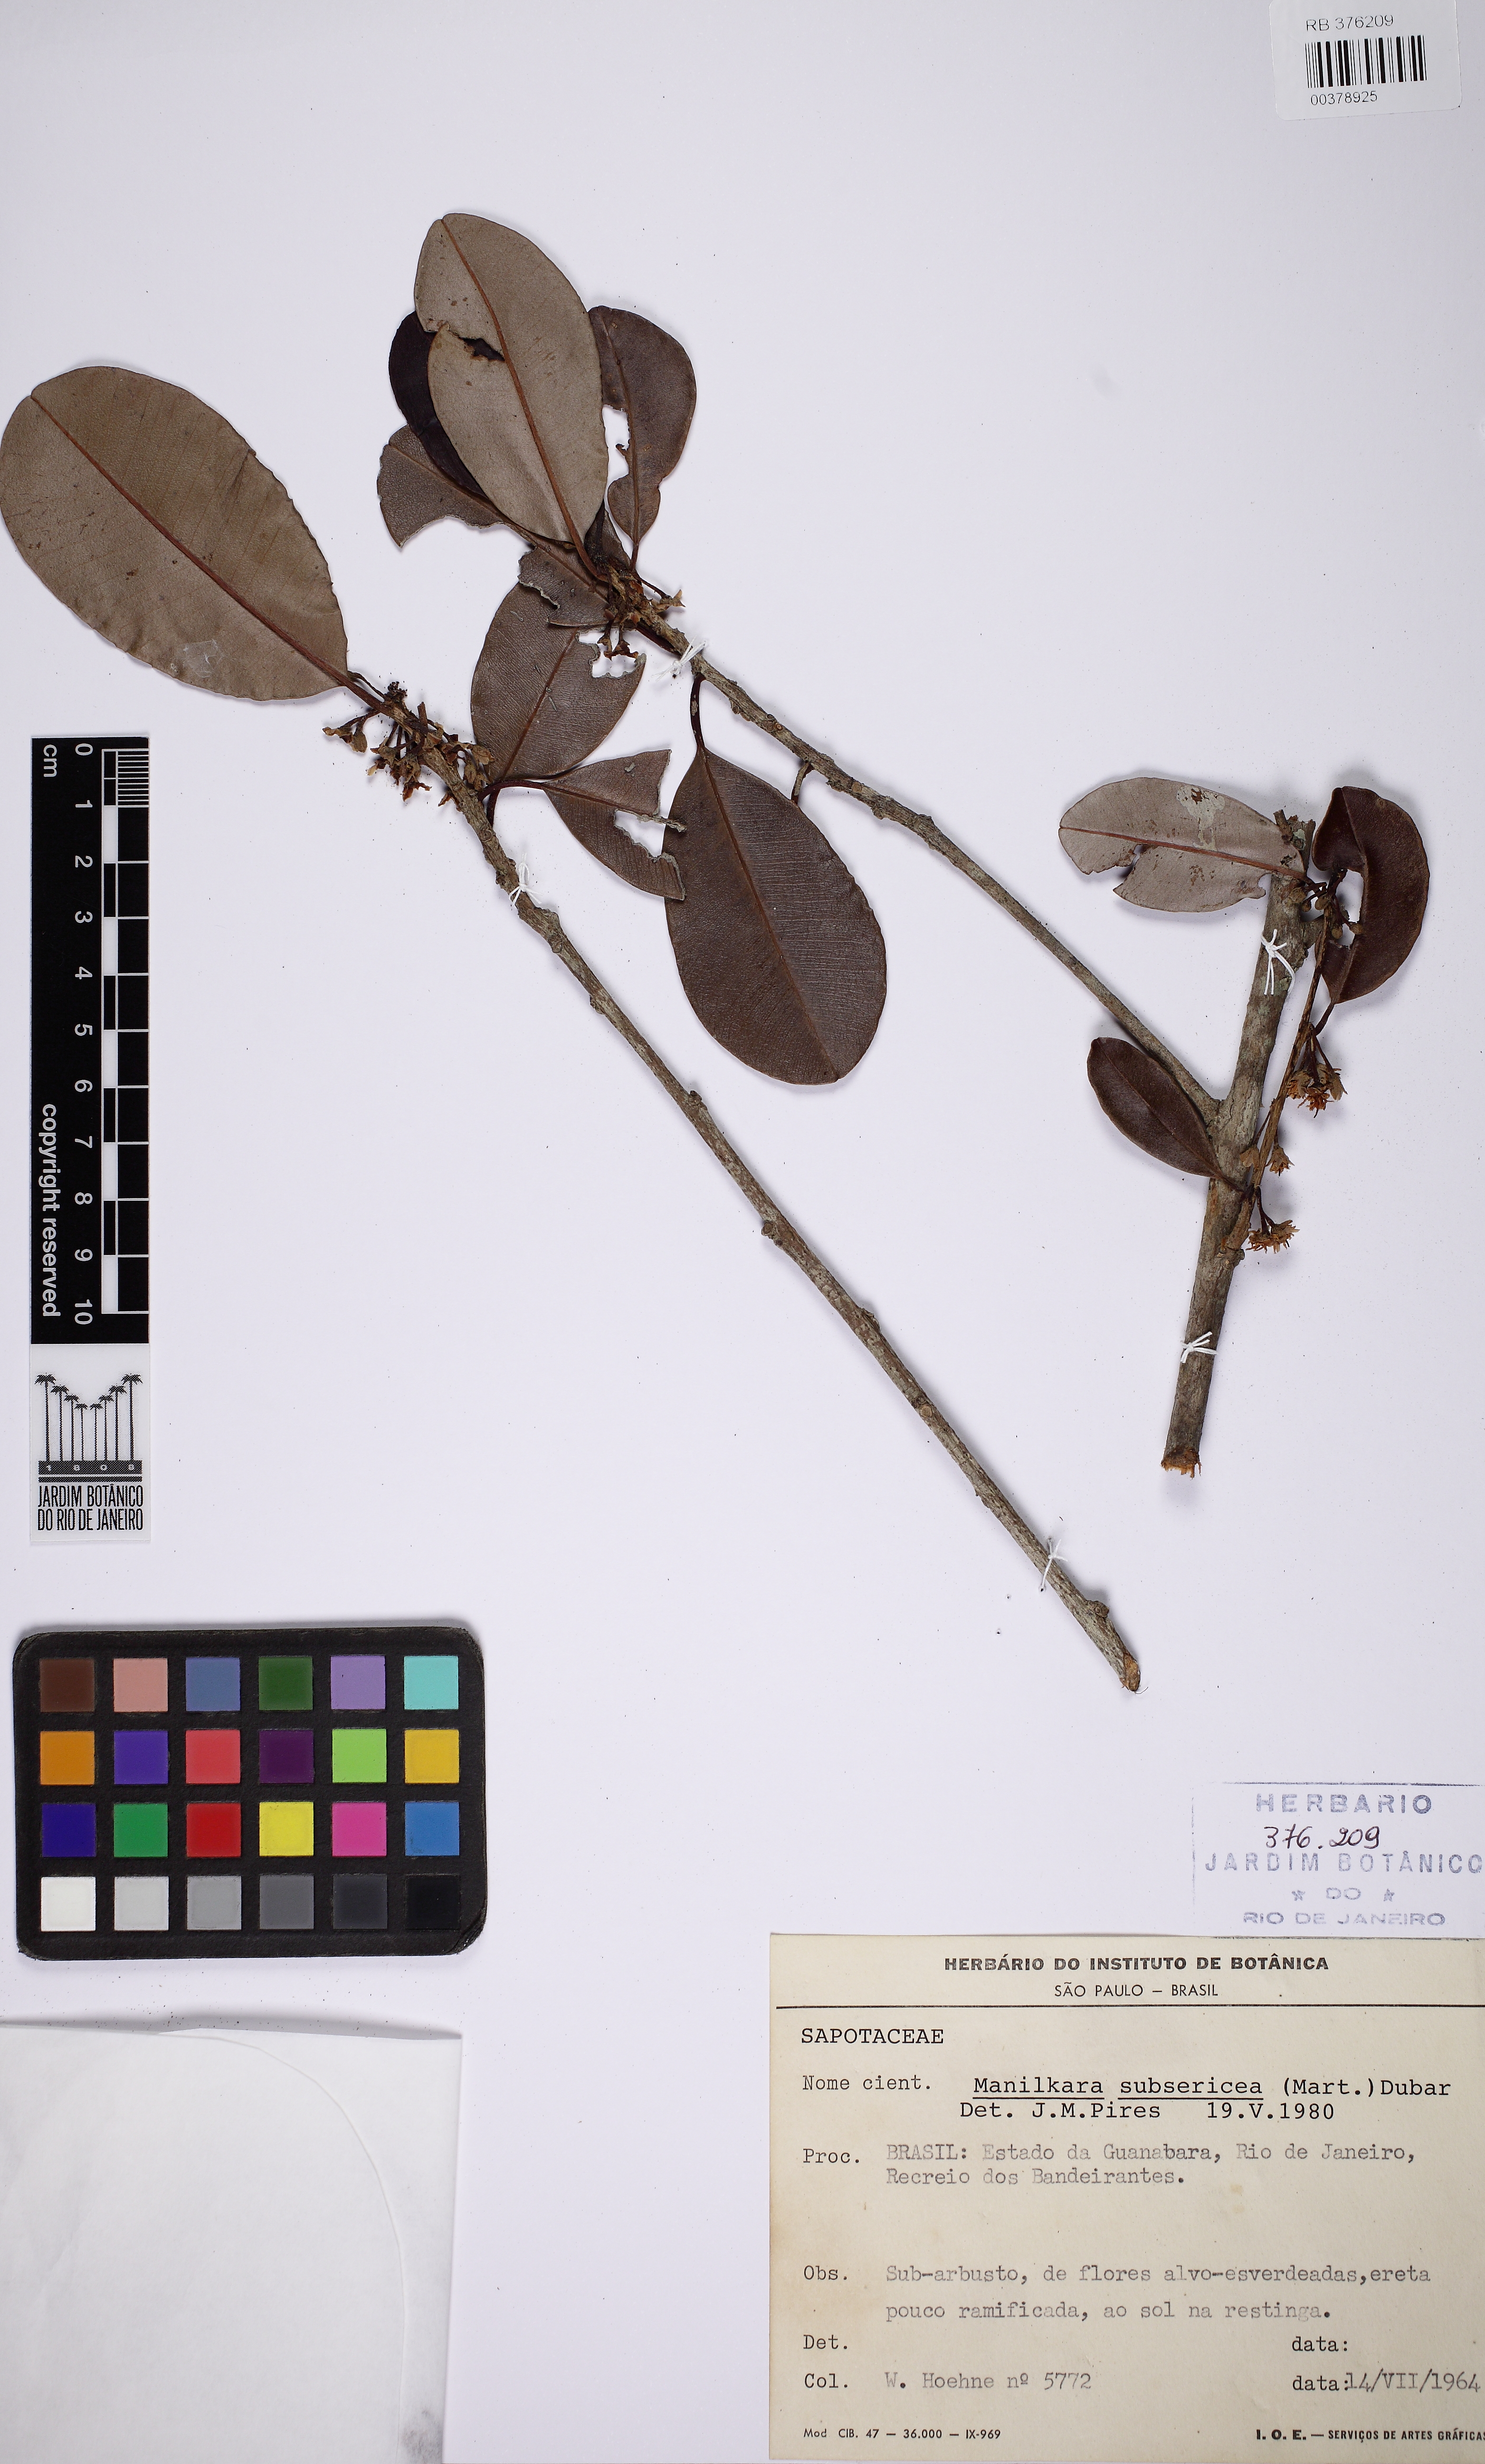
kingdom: Plantae
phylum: Tracheophyta
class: Magnoliopsida
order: Ericales
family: Sapotaceae
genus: Manilkara
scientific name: Manilkara subsericea
